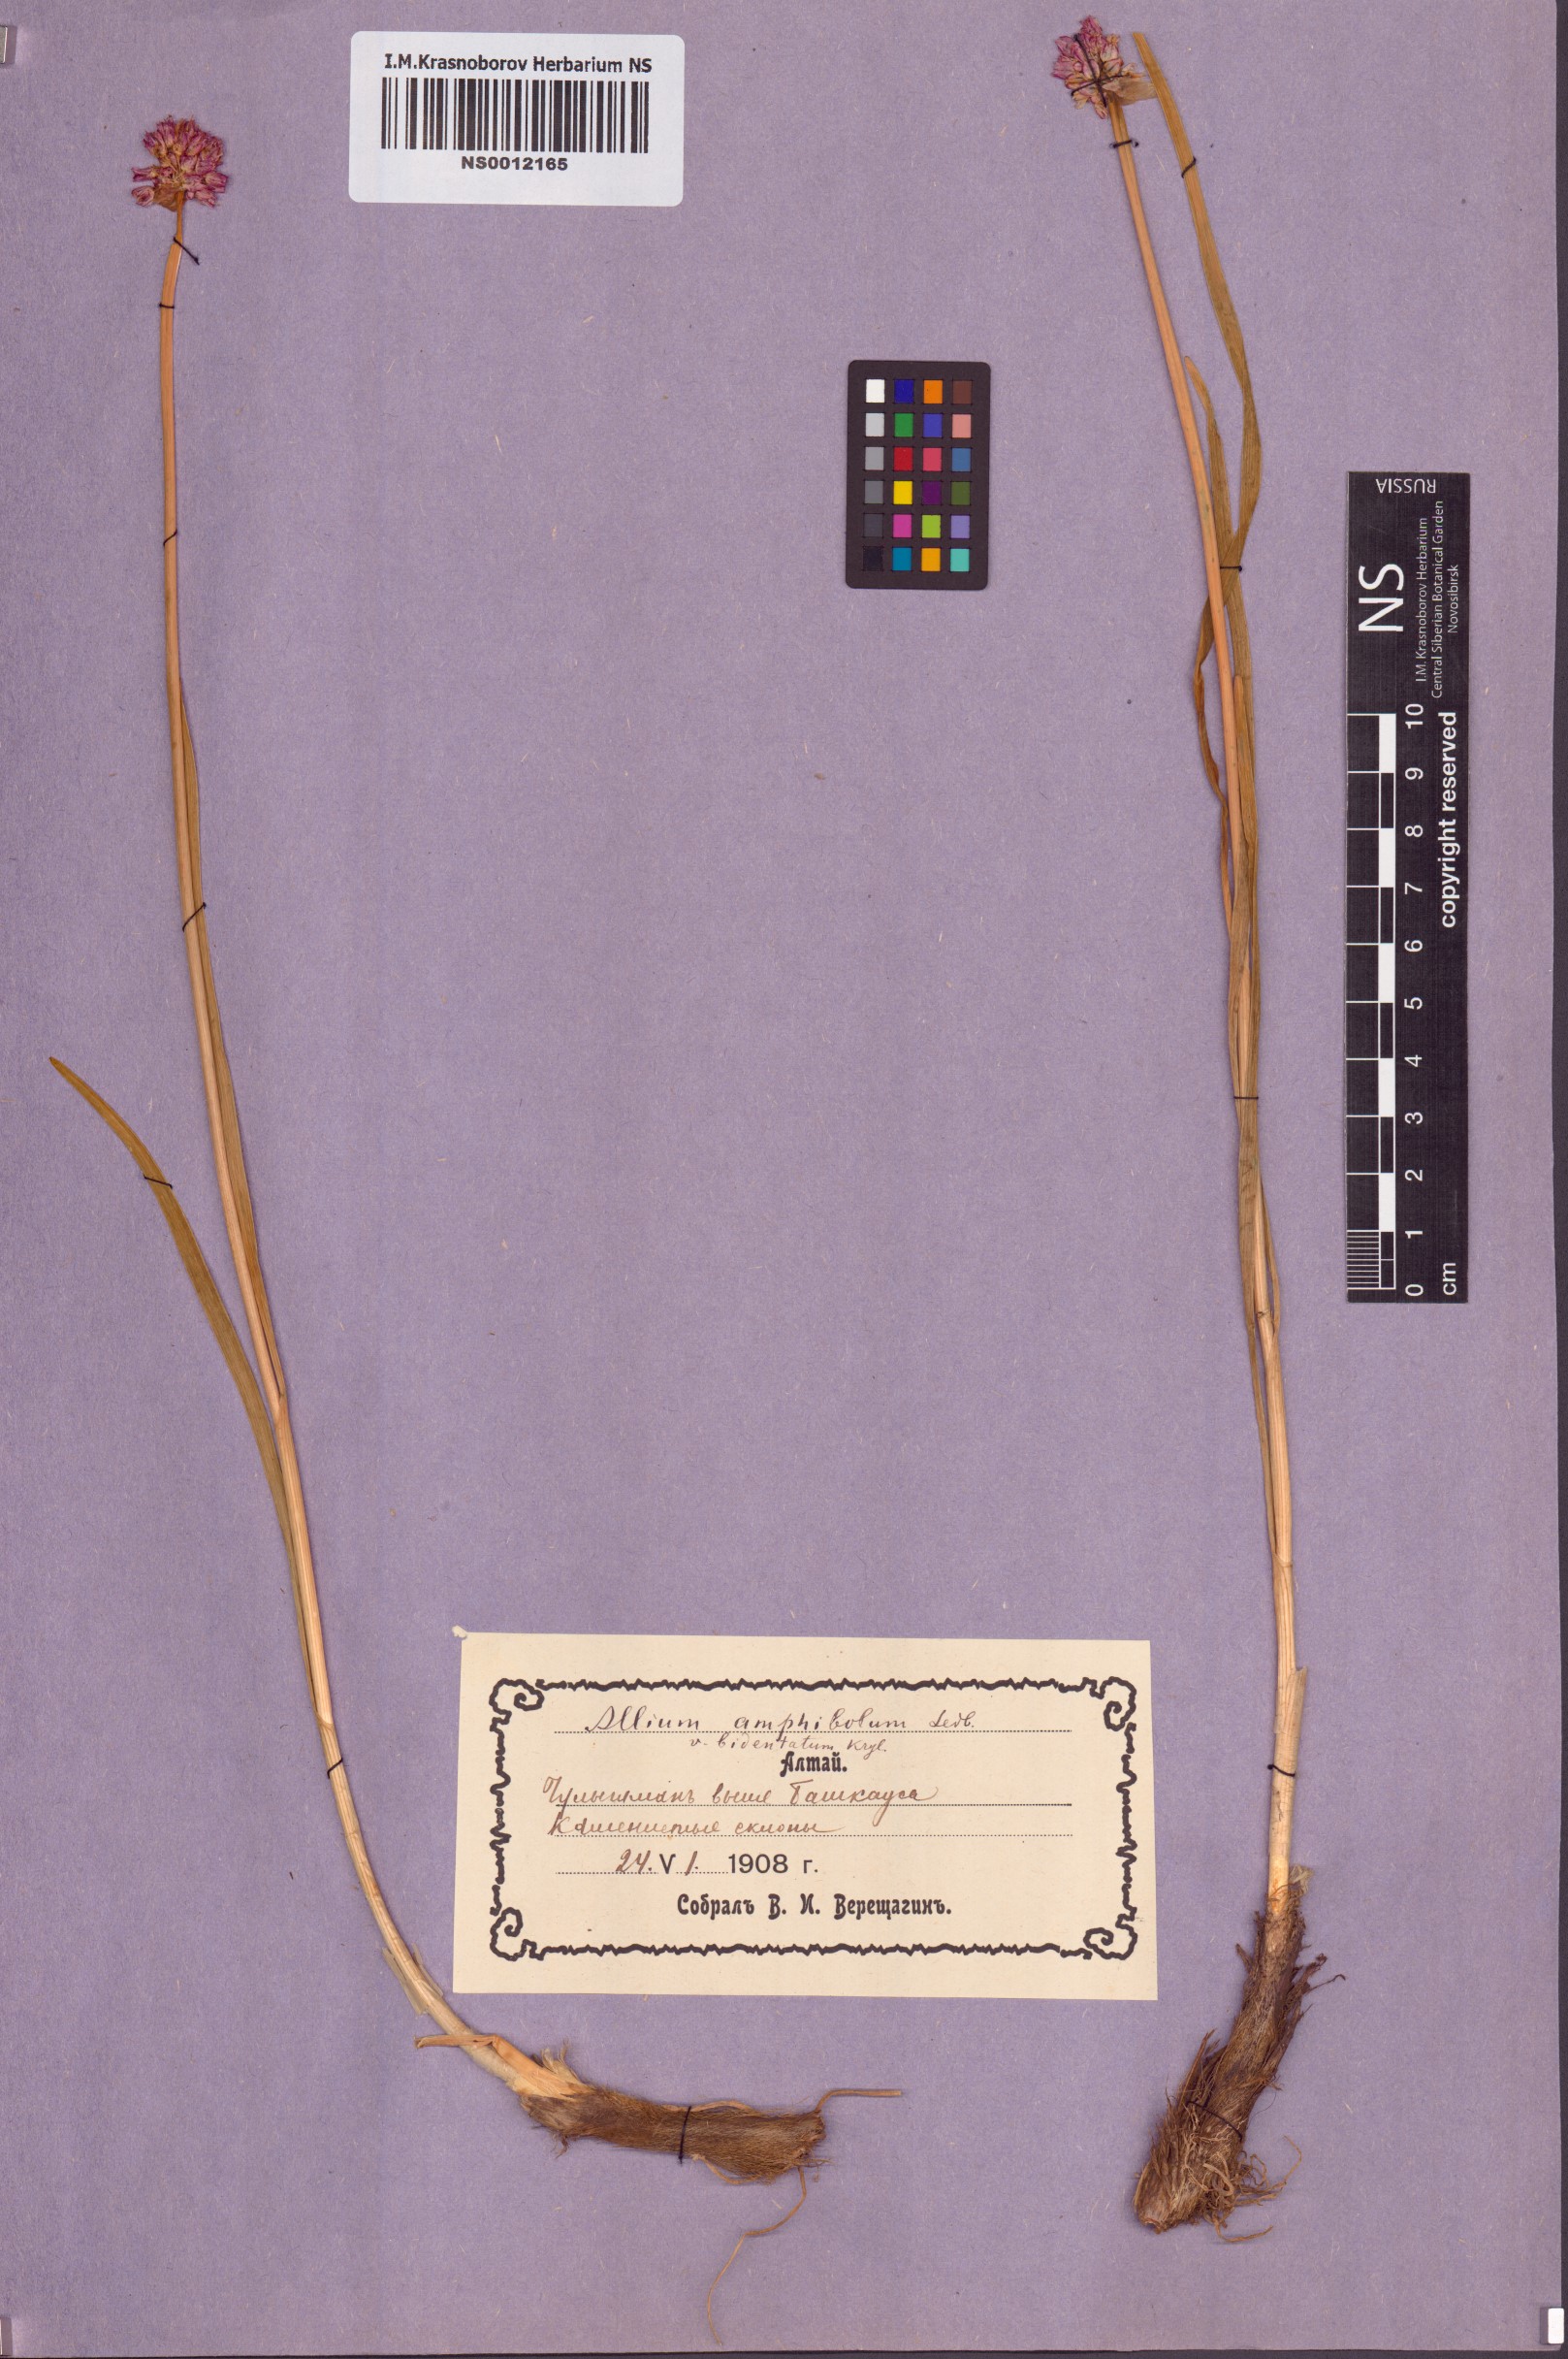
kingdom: Plantae
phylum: Tracheophyta
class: Liliopsida
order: Asparagales
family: Amaryllidaceae
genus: Allium
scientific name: Allium amphibolum
